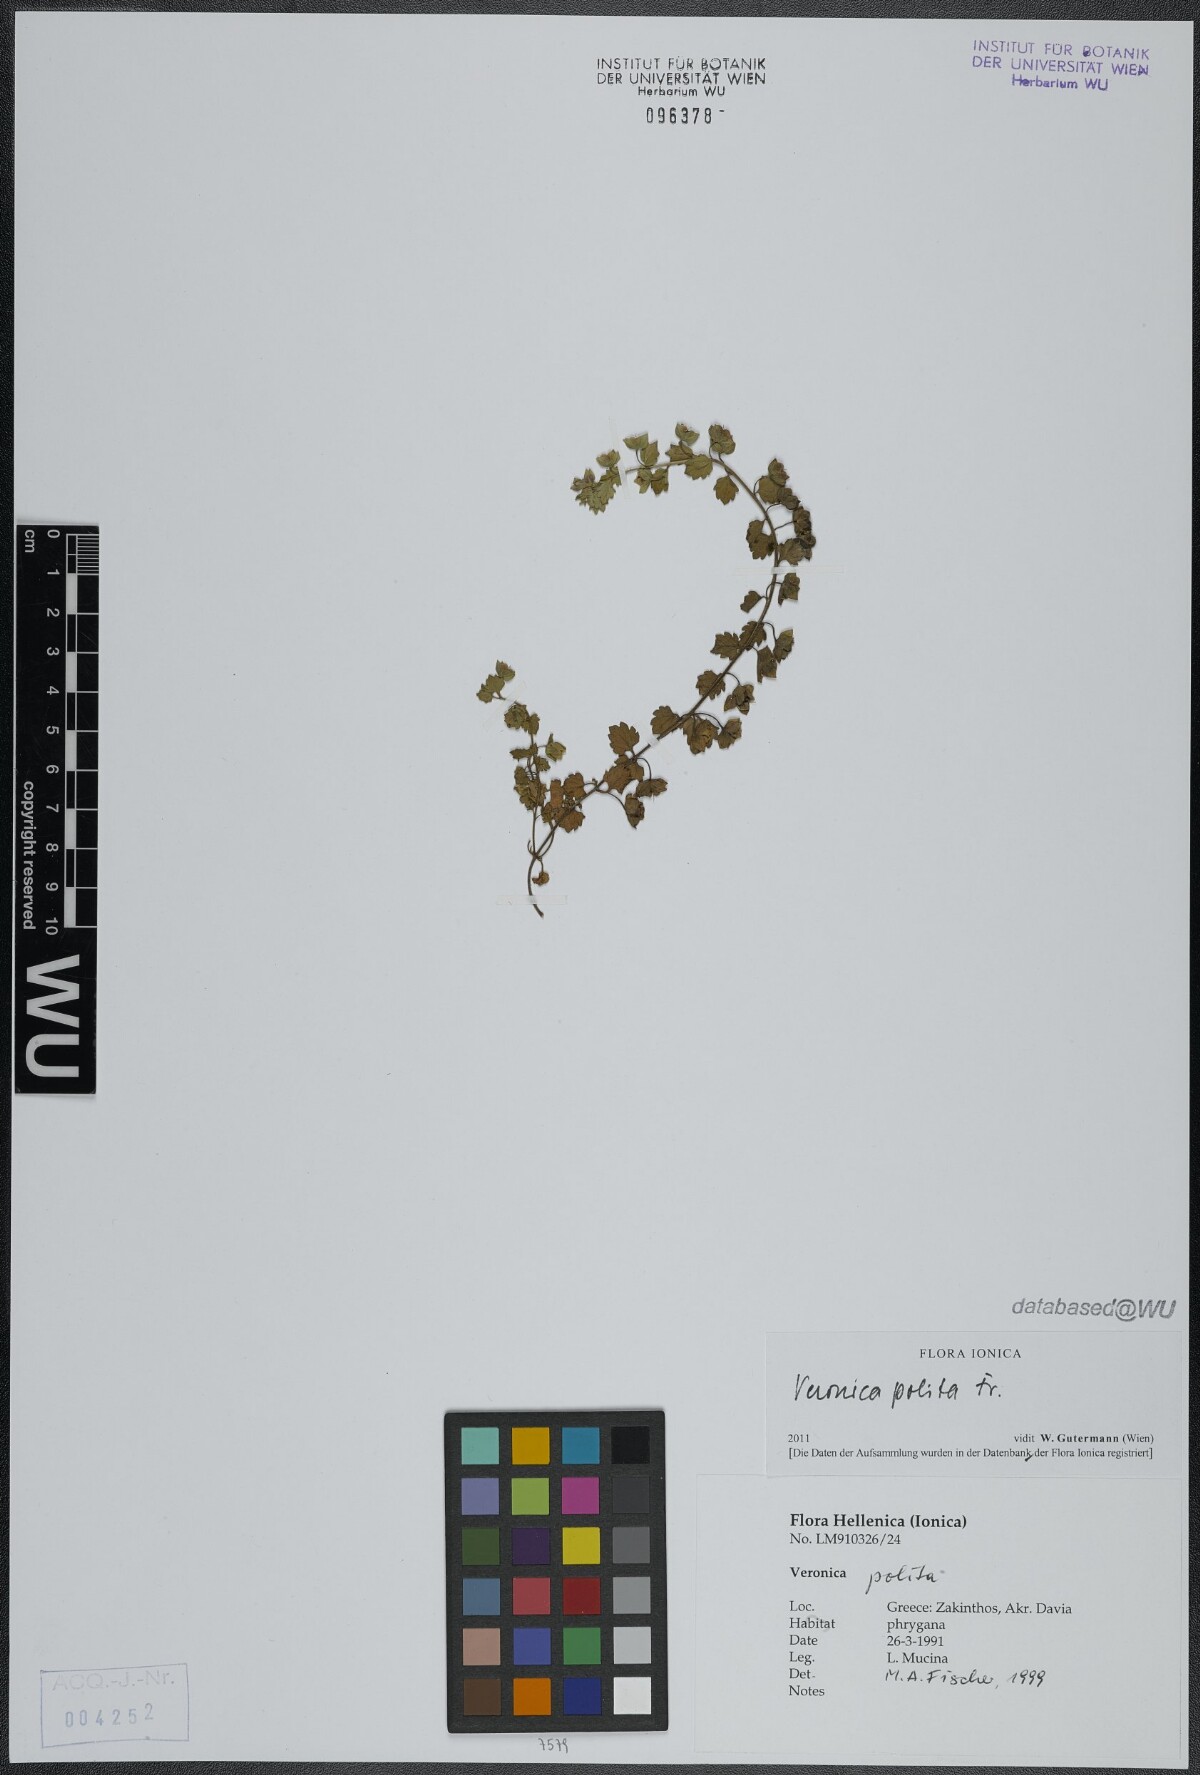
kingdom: Plantae
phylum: Tracheophyta
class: Magnoliopsida
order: Lamiales
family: Plantaginaceae
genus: Veronica
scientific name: Veronica polita
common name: Grey field-speedwell
